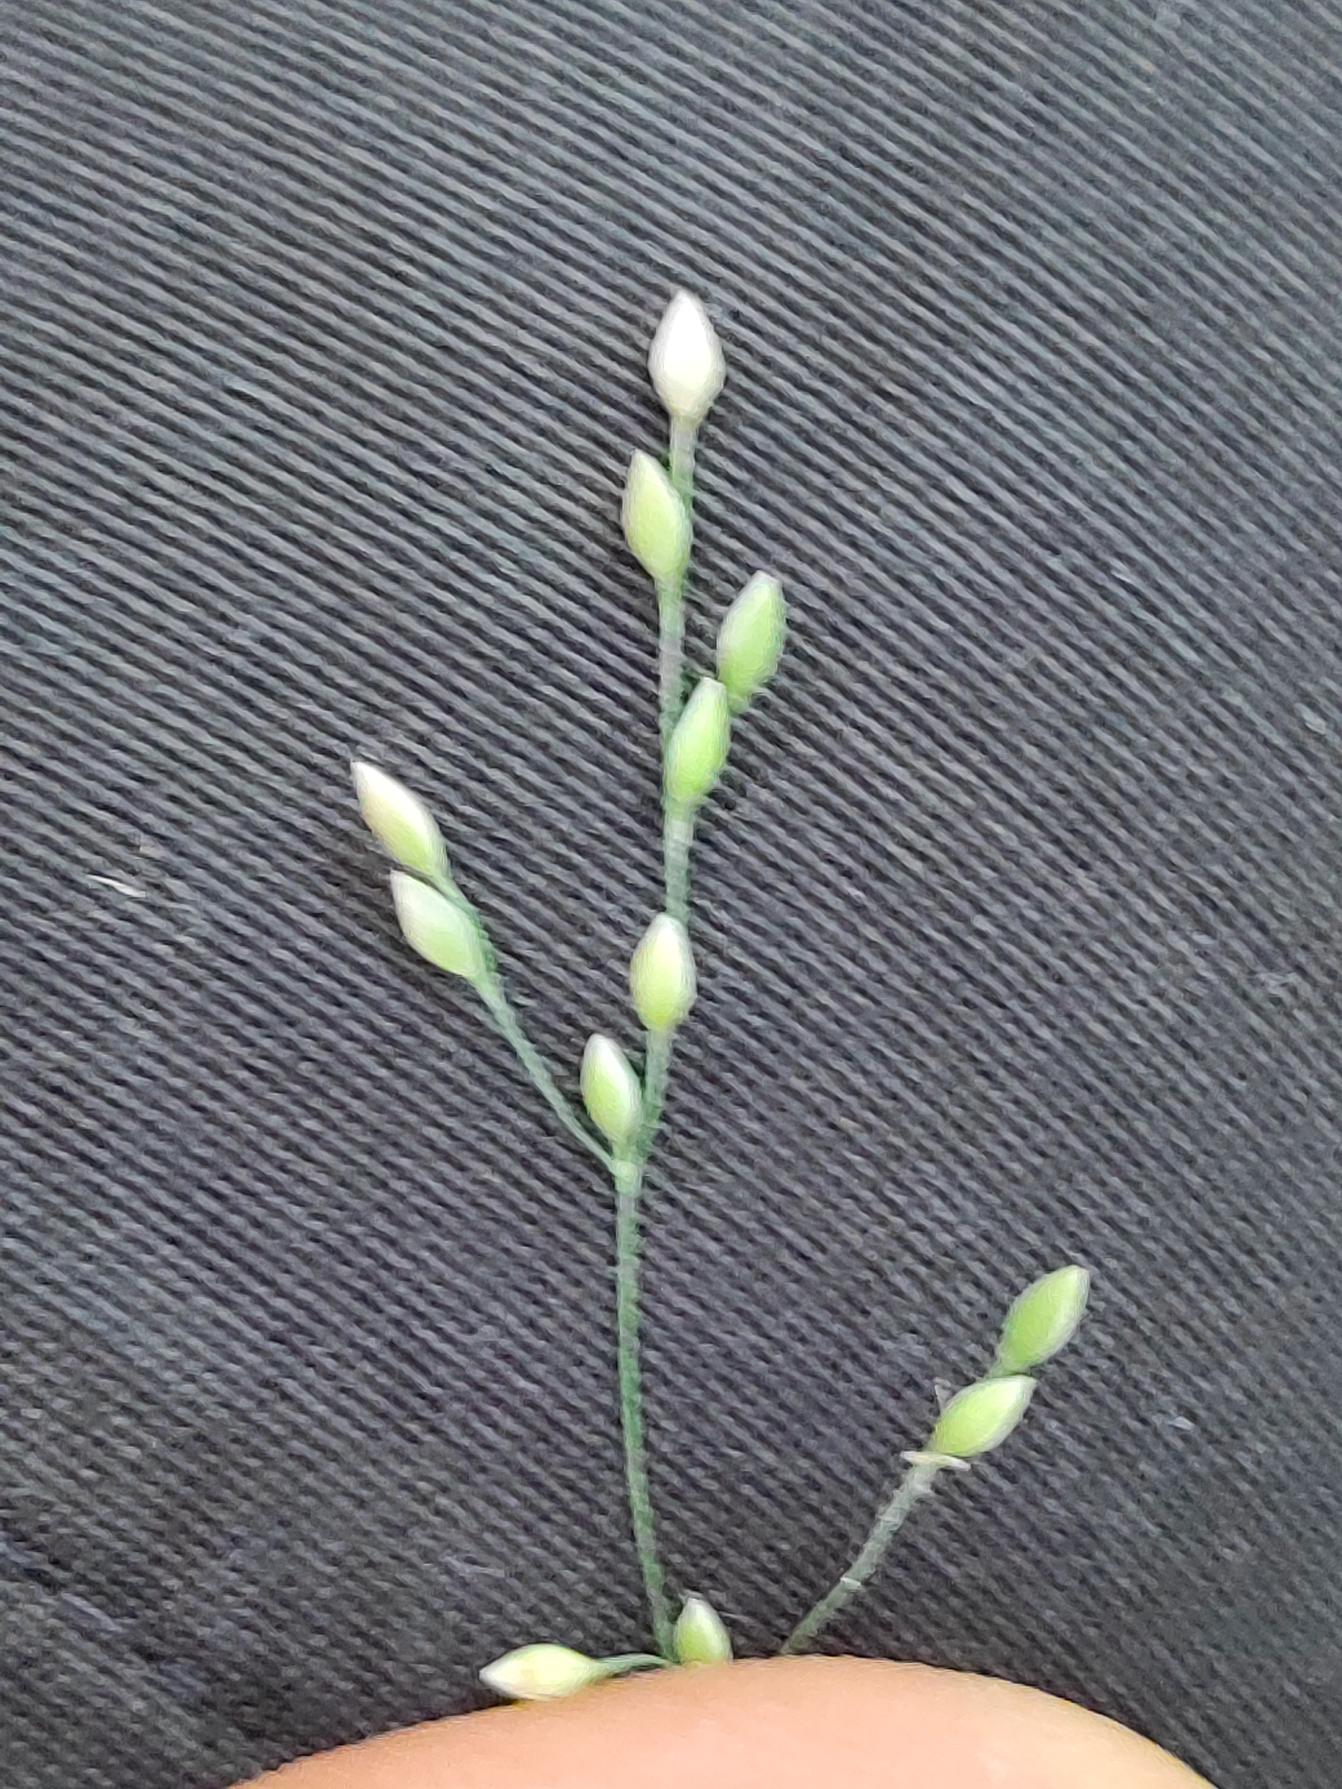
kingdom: Plantae
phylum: Tracheophyta
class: Liliopsida
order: Poales
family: Poaceae
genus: Milium
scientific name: Milium effusum
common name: Miliegræs
